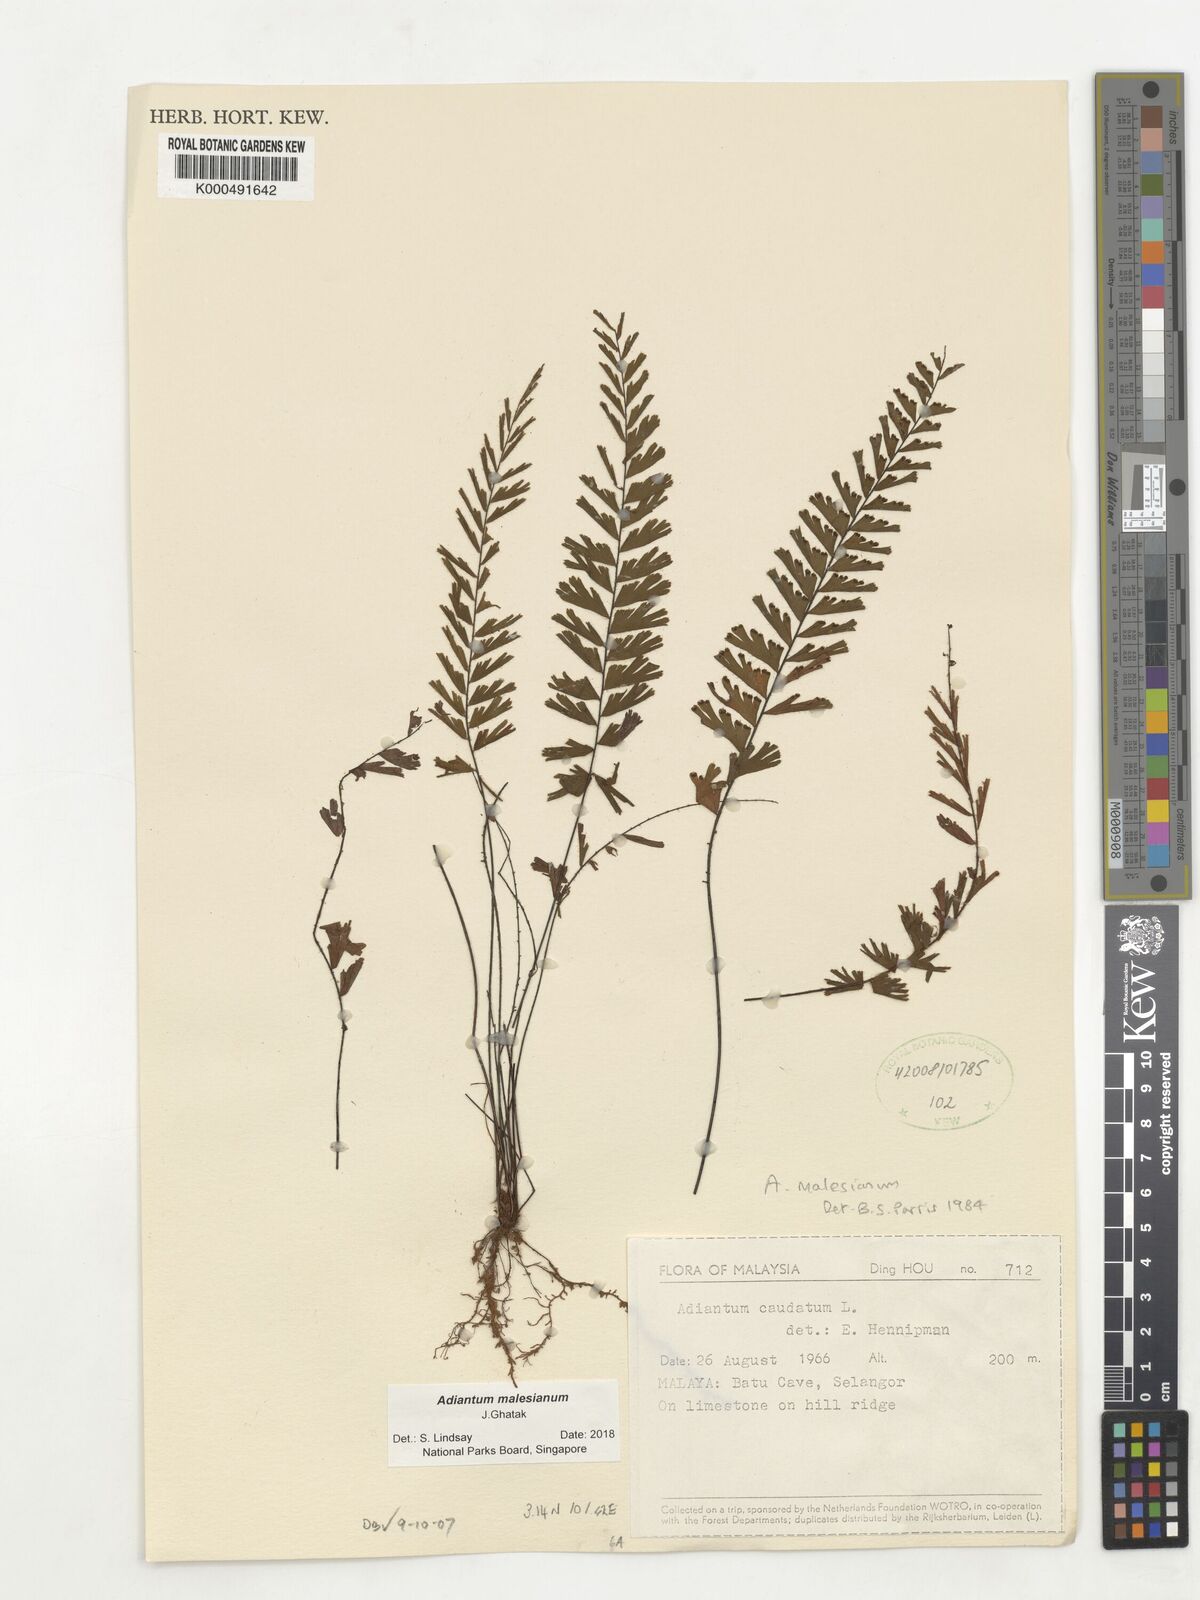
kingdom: Plantae
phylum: Tracheophyta
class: Polypodiopsida
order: Polypodiales
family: Pteridaceae
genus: Adiantum
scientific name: Adiantum ciliatum
